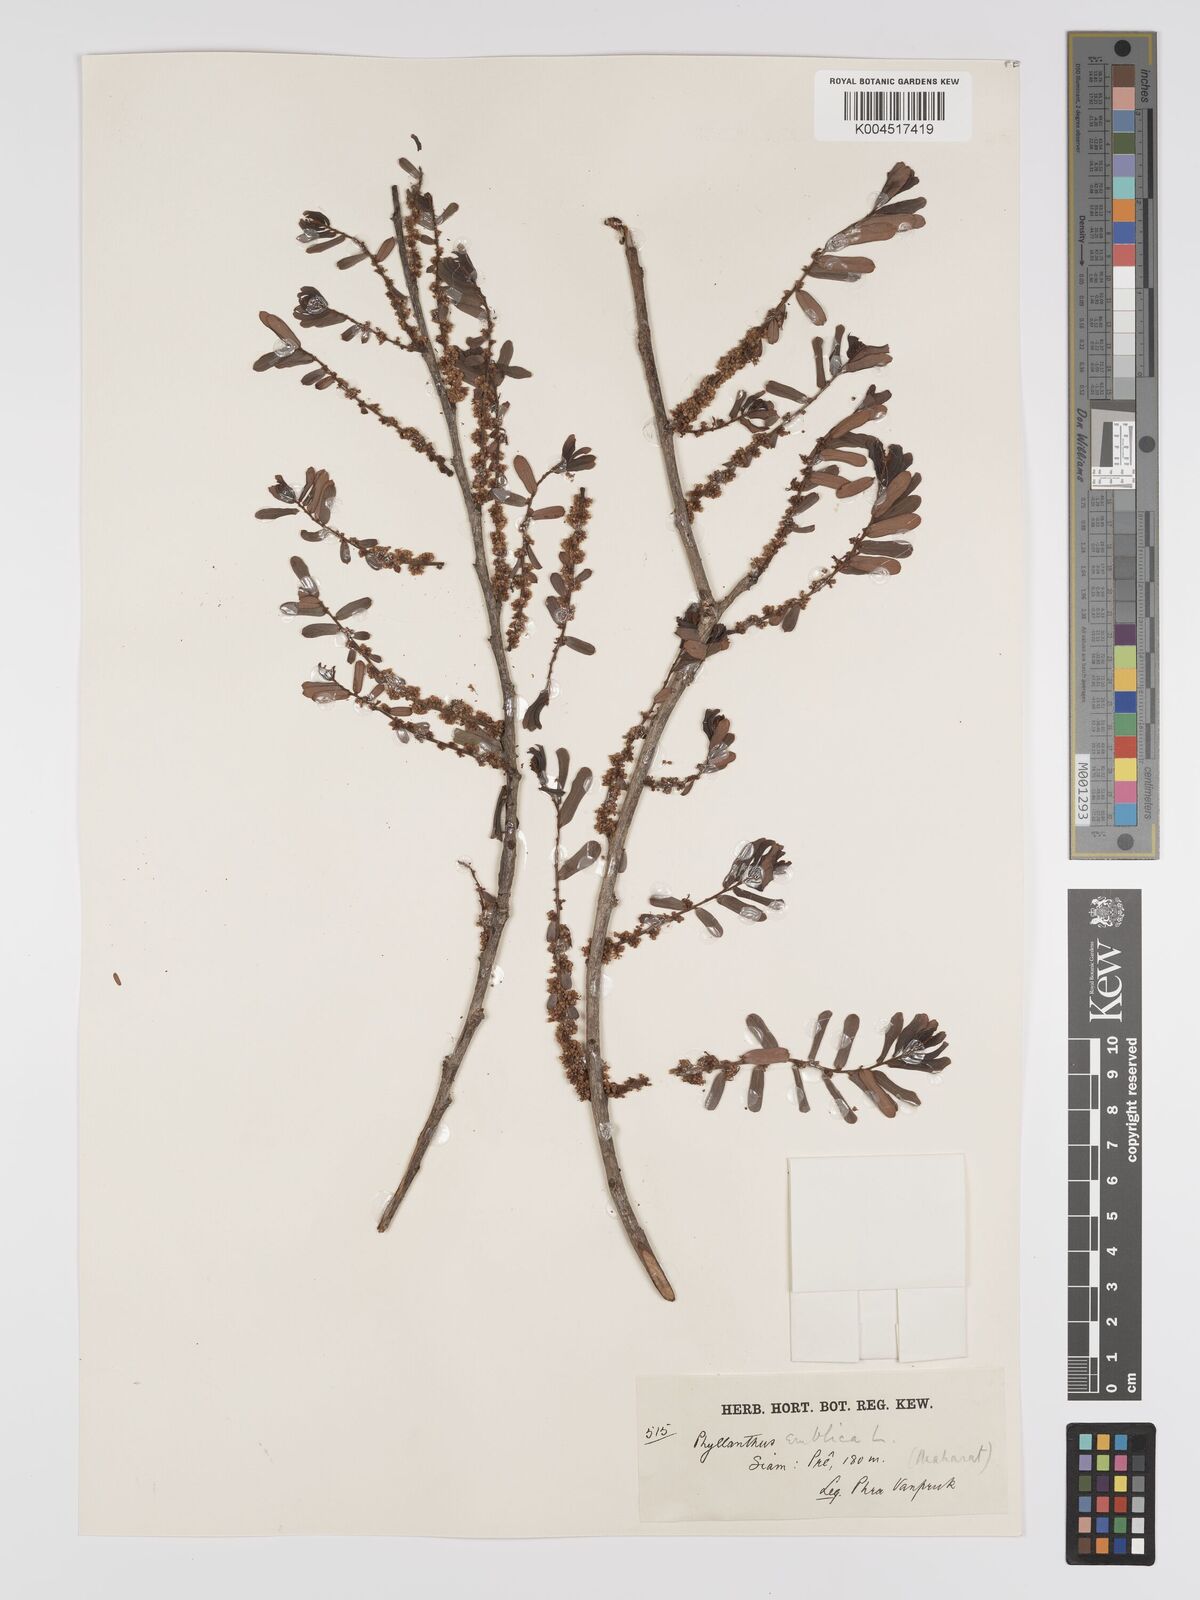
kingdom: Plantae
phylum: Tracheophyta
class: Magnoliopsida
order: Malpighiales
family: Phyllanthaceae
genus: Phyllanthus
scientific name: Phyllanthus emblica
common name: Indian gooseberry
